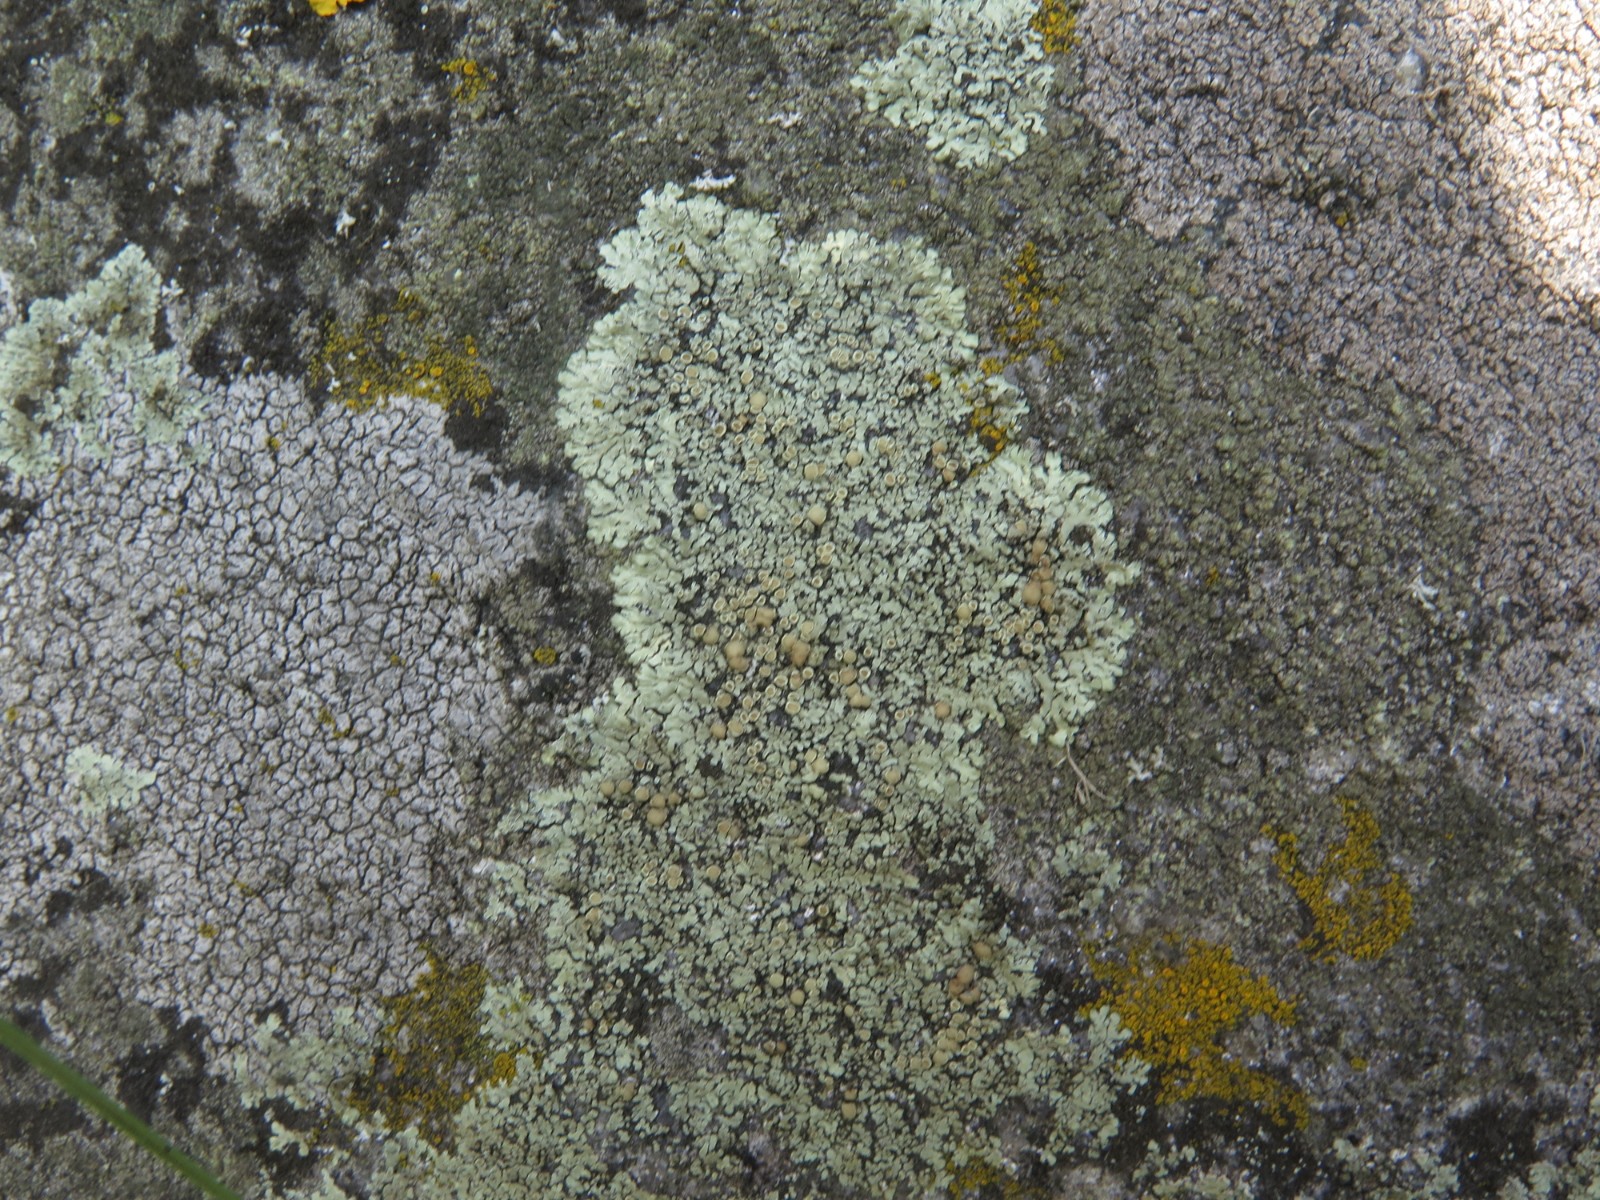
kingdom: Fungi
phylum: Ascomycota
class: Lecanoromycetes
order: Lecanorales
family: Lecanoraceae
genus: Protoparmeliopsis
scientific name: Protoparmeliopsis muralis
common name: randfliget kantskivelav
